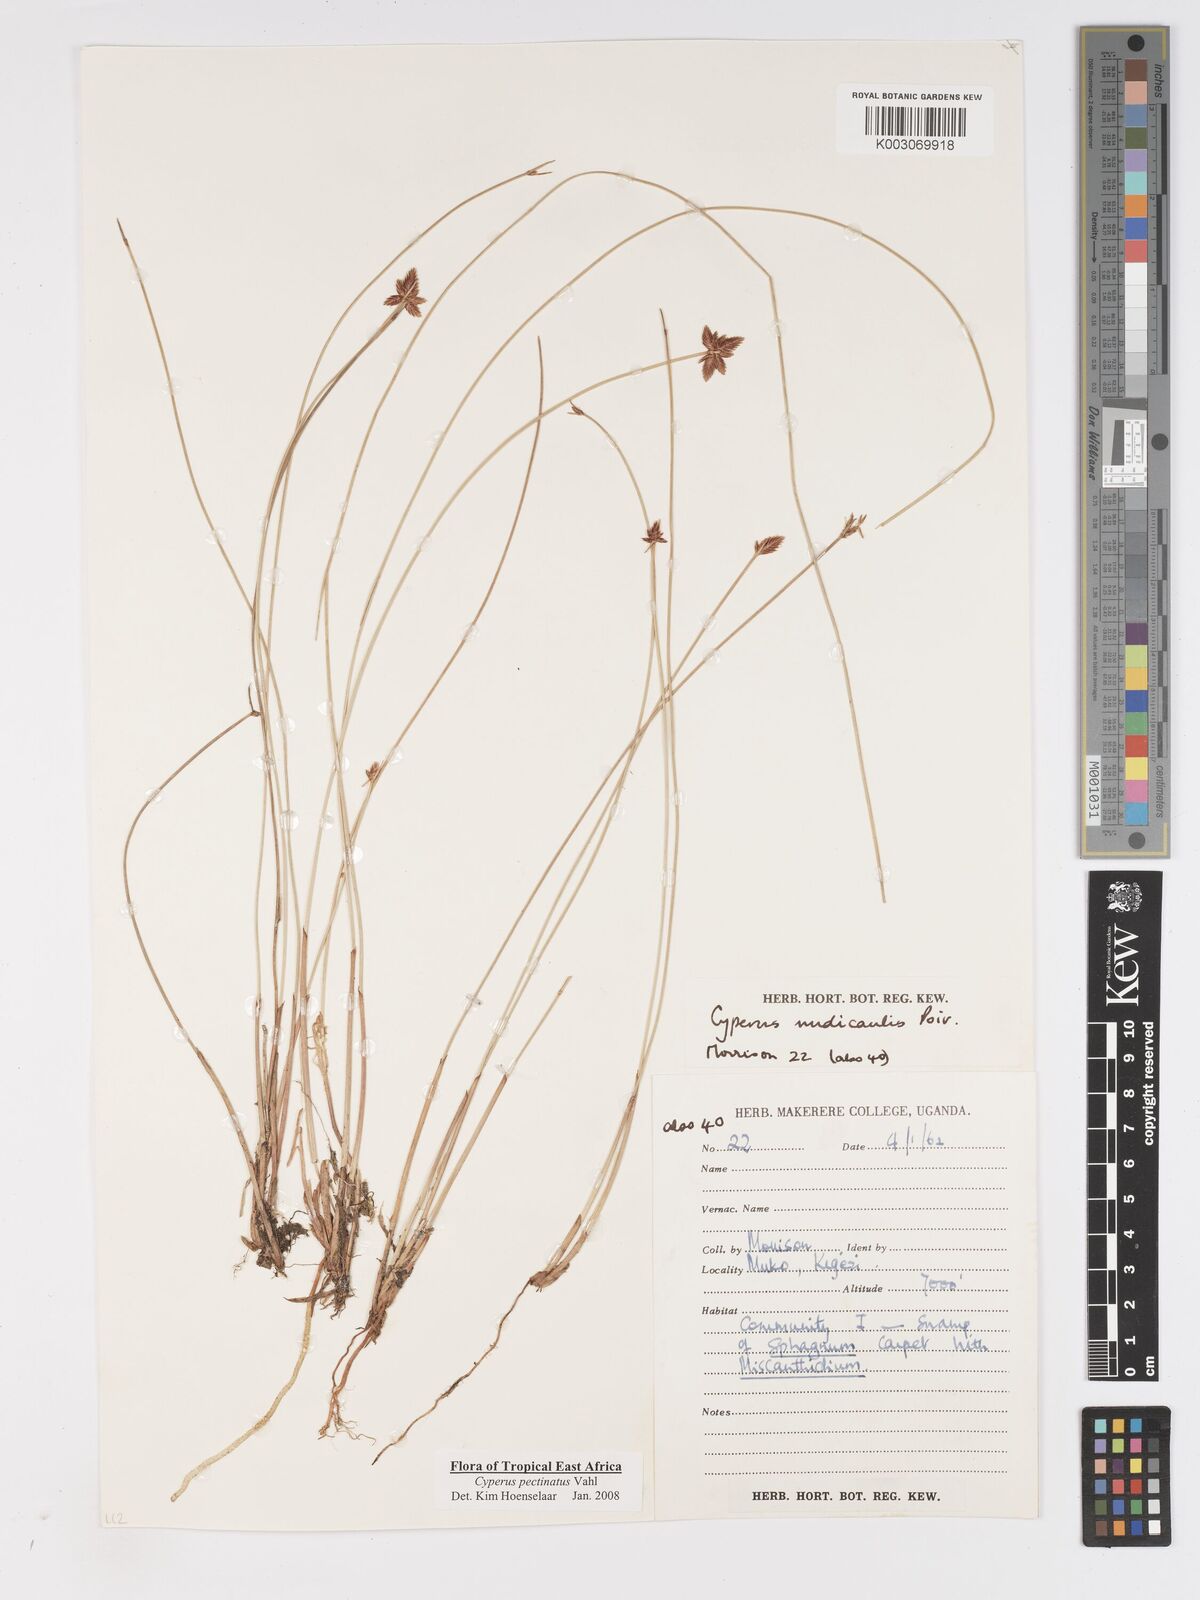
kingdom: Plantae
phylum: Tracheophyta
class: Liliopsida
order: Poales
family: Cyperaceae
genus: Cyperus
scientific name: Cyperus pectinatus
